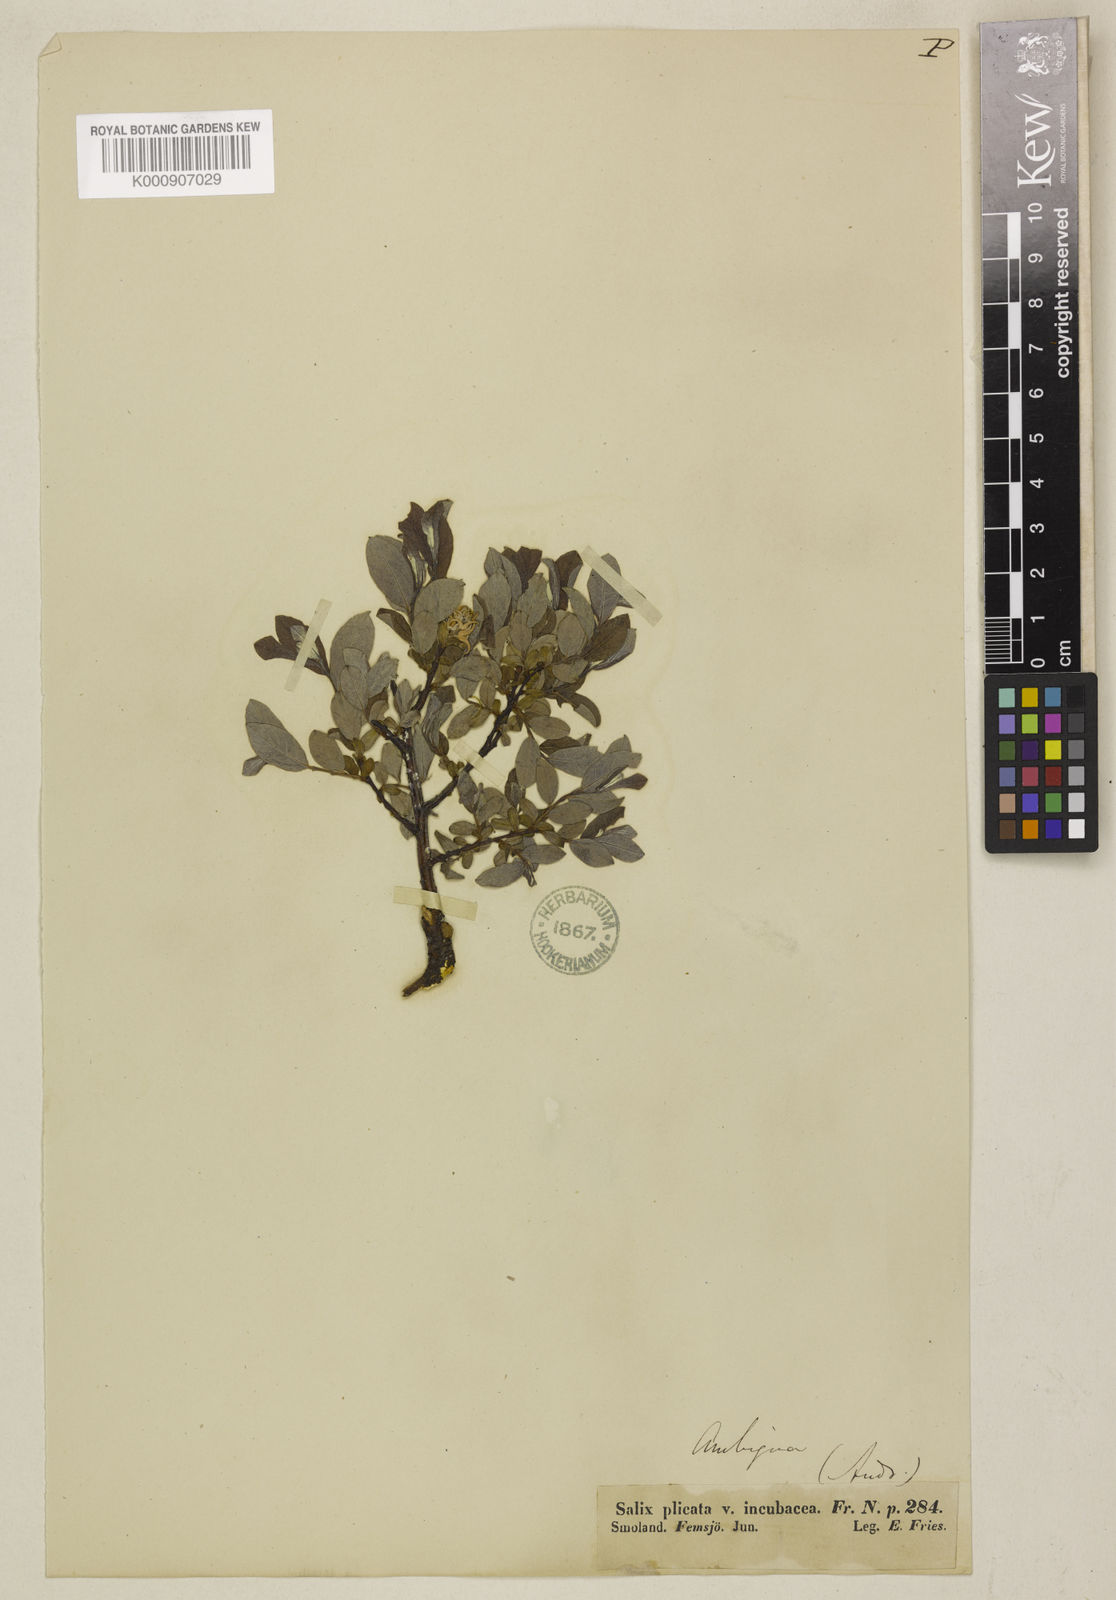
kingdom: Plantae
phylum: Tracheophyta
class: Magnoliopsida
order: Malpighiales
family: Salicaceae
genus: Salix
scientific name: Salix aurita
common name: Eared willow
